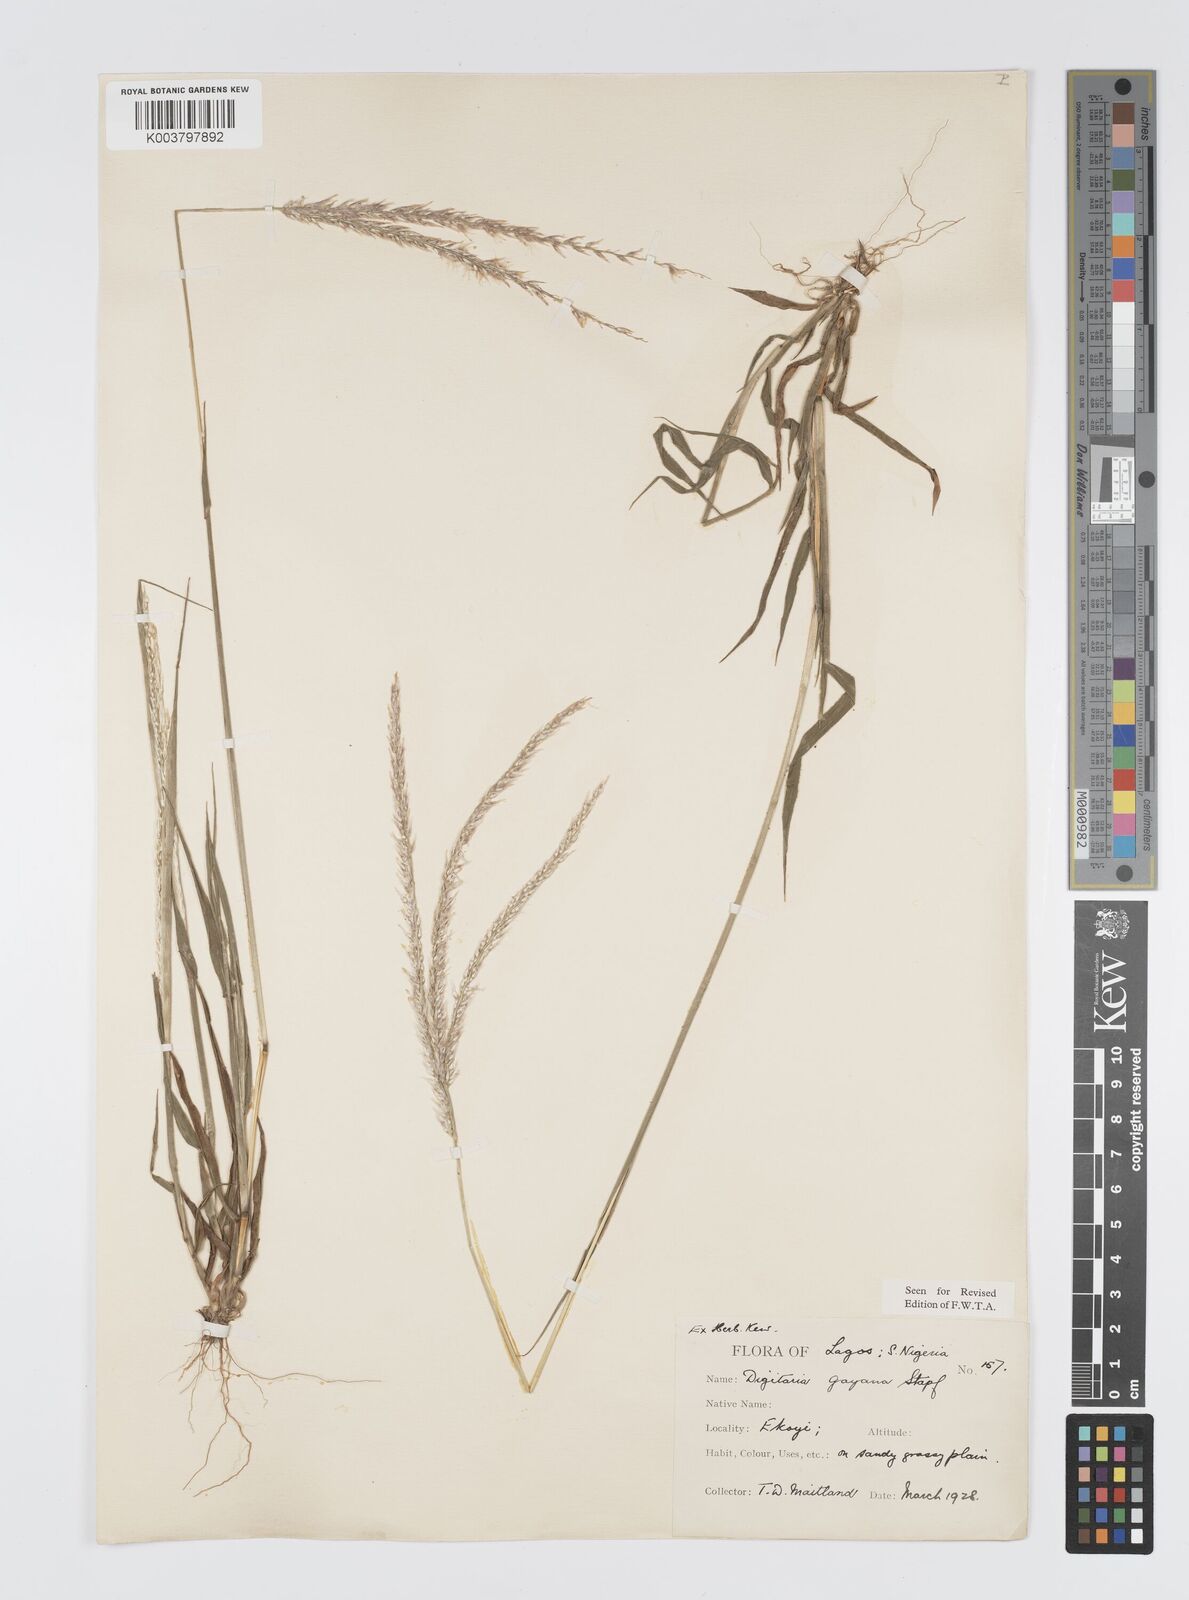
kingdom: Plantae
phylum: Tracheophyta
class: Liliopsida
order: Poales
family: Poaceae
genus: Digitaria
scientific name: Digitaria gayana
